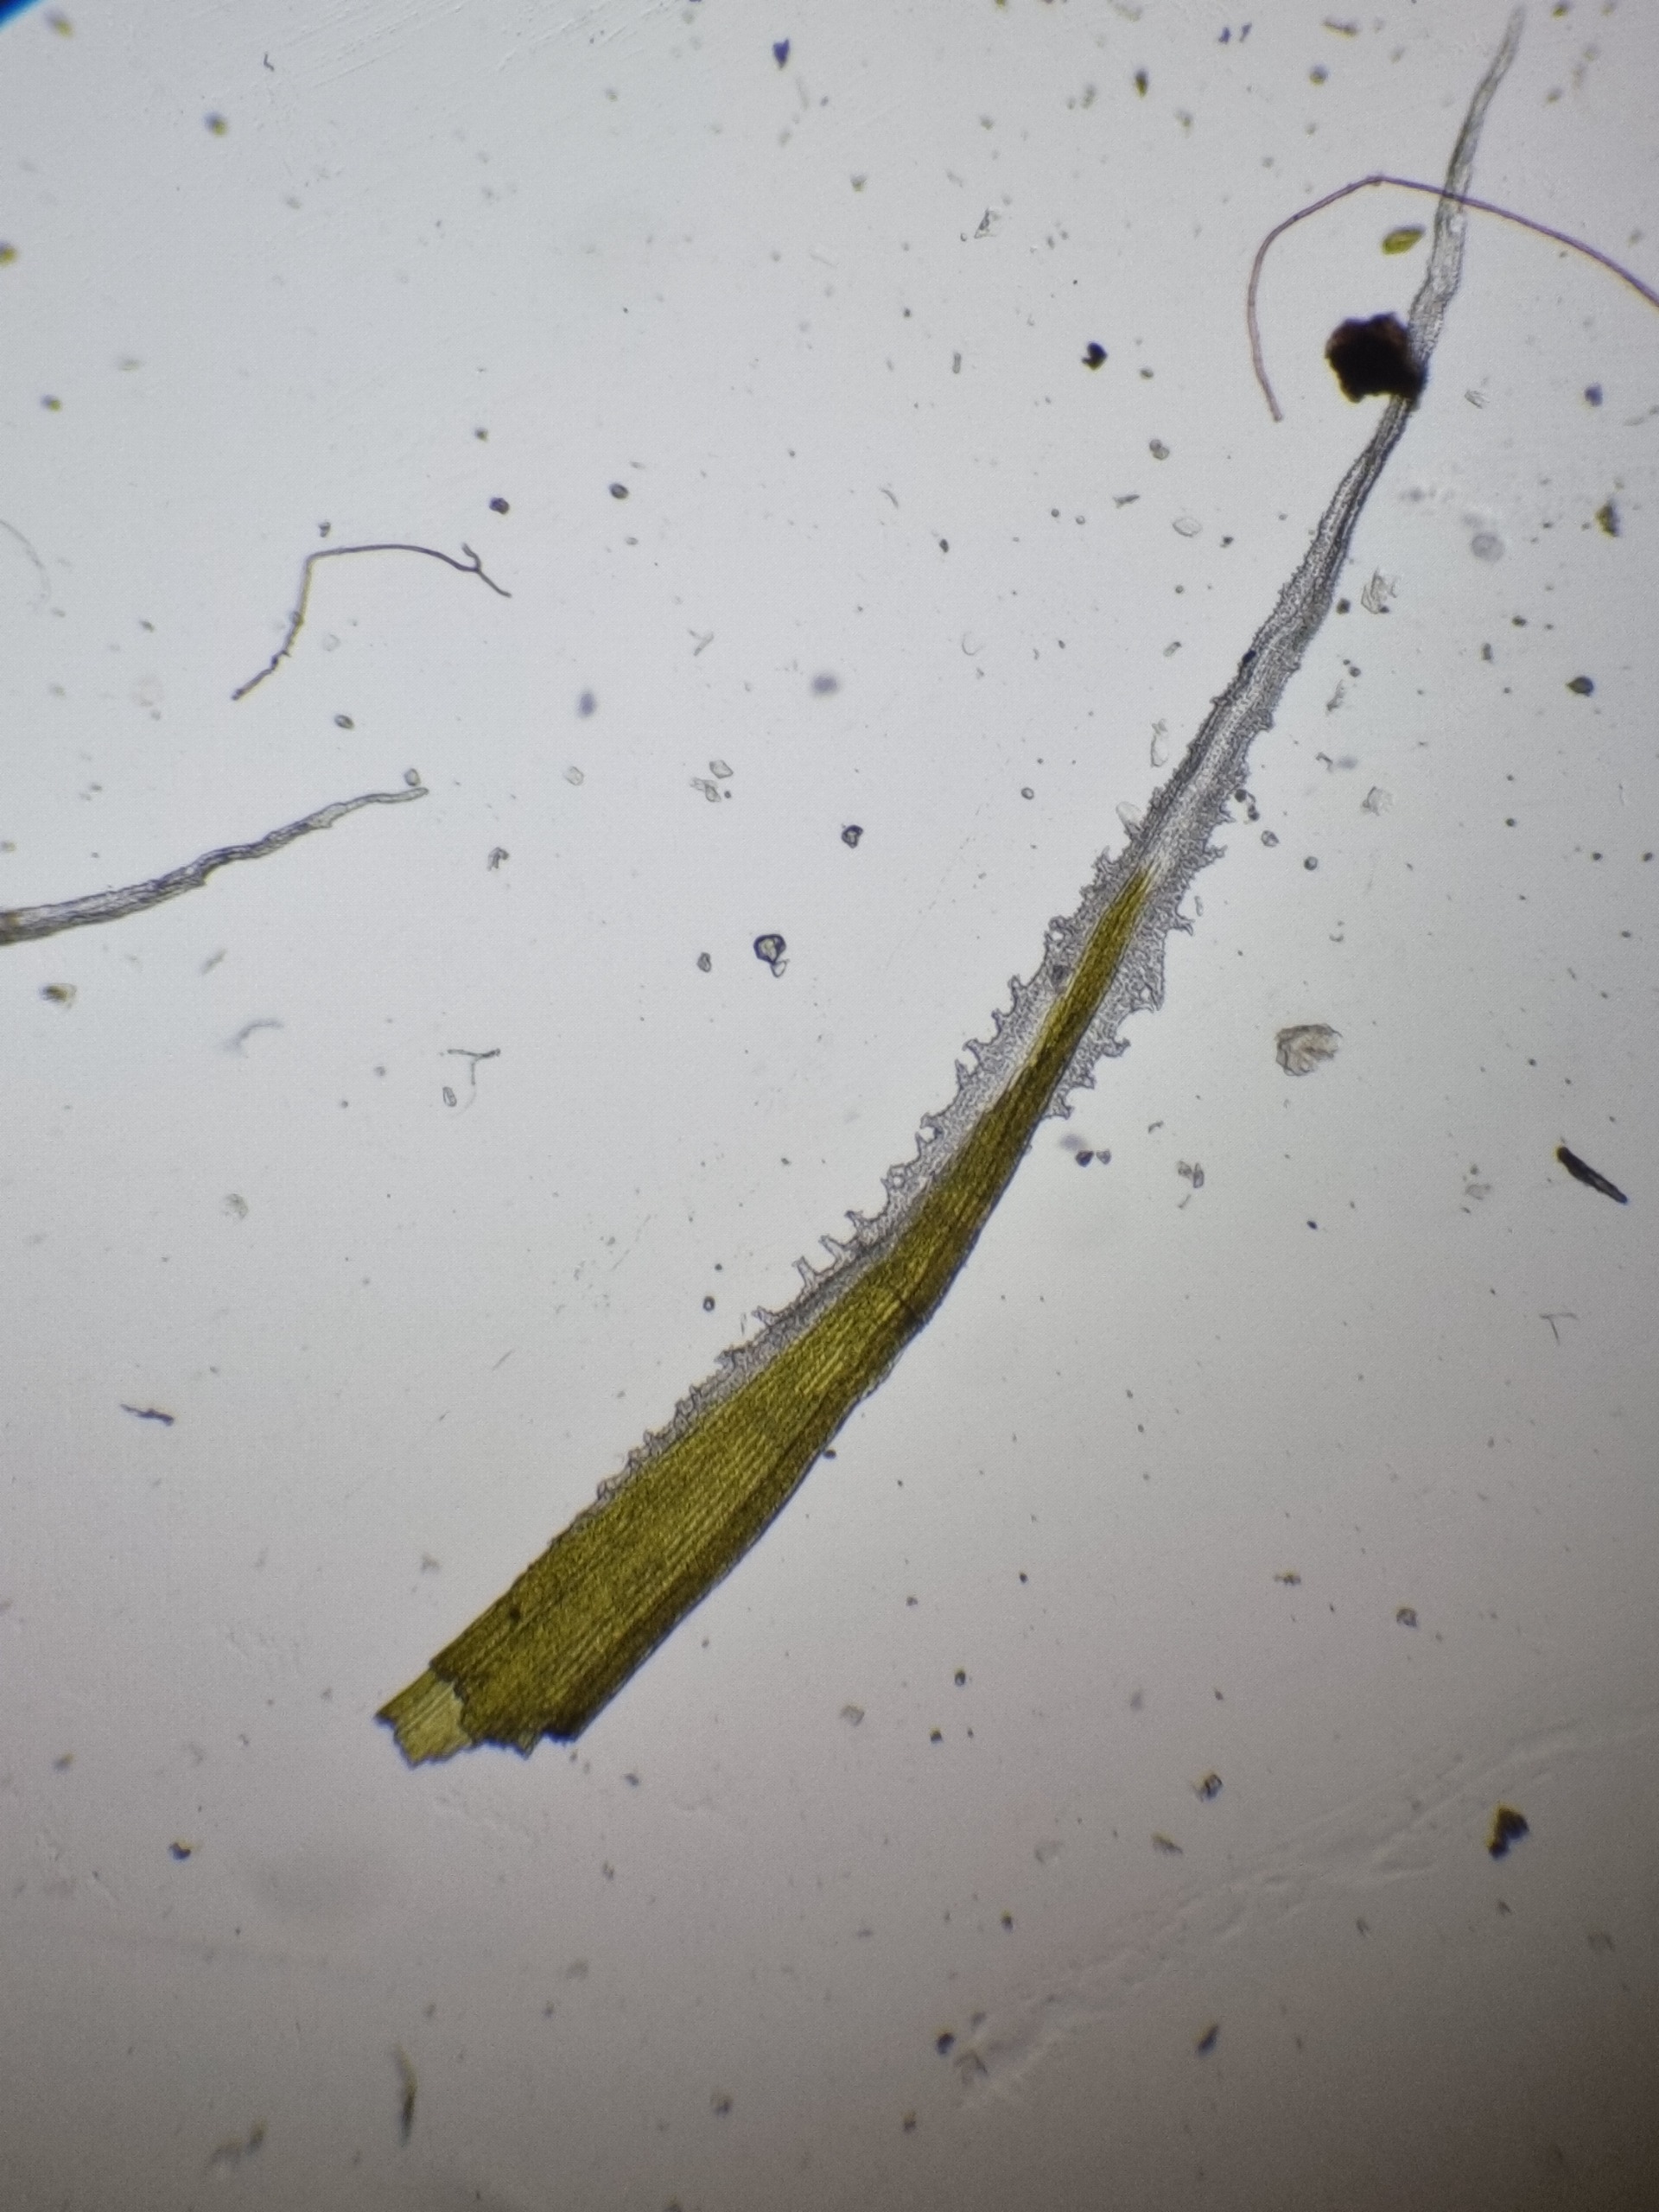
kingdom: Plantae
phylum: Bryophyta
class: Bryopsida
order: Grimmiales
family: Grimmiaceae
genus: Racomitrium
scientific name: Racomitrium lanuginosum
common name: Stor børstemos
